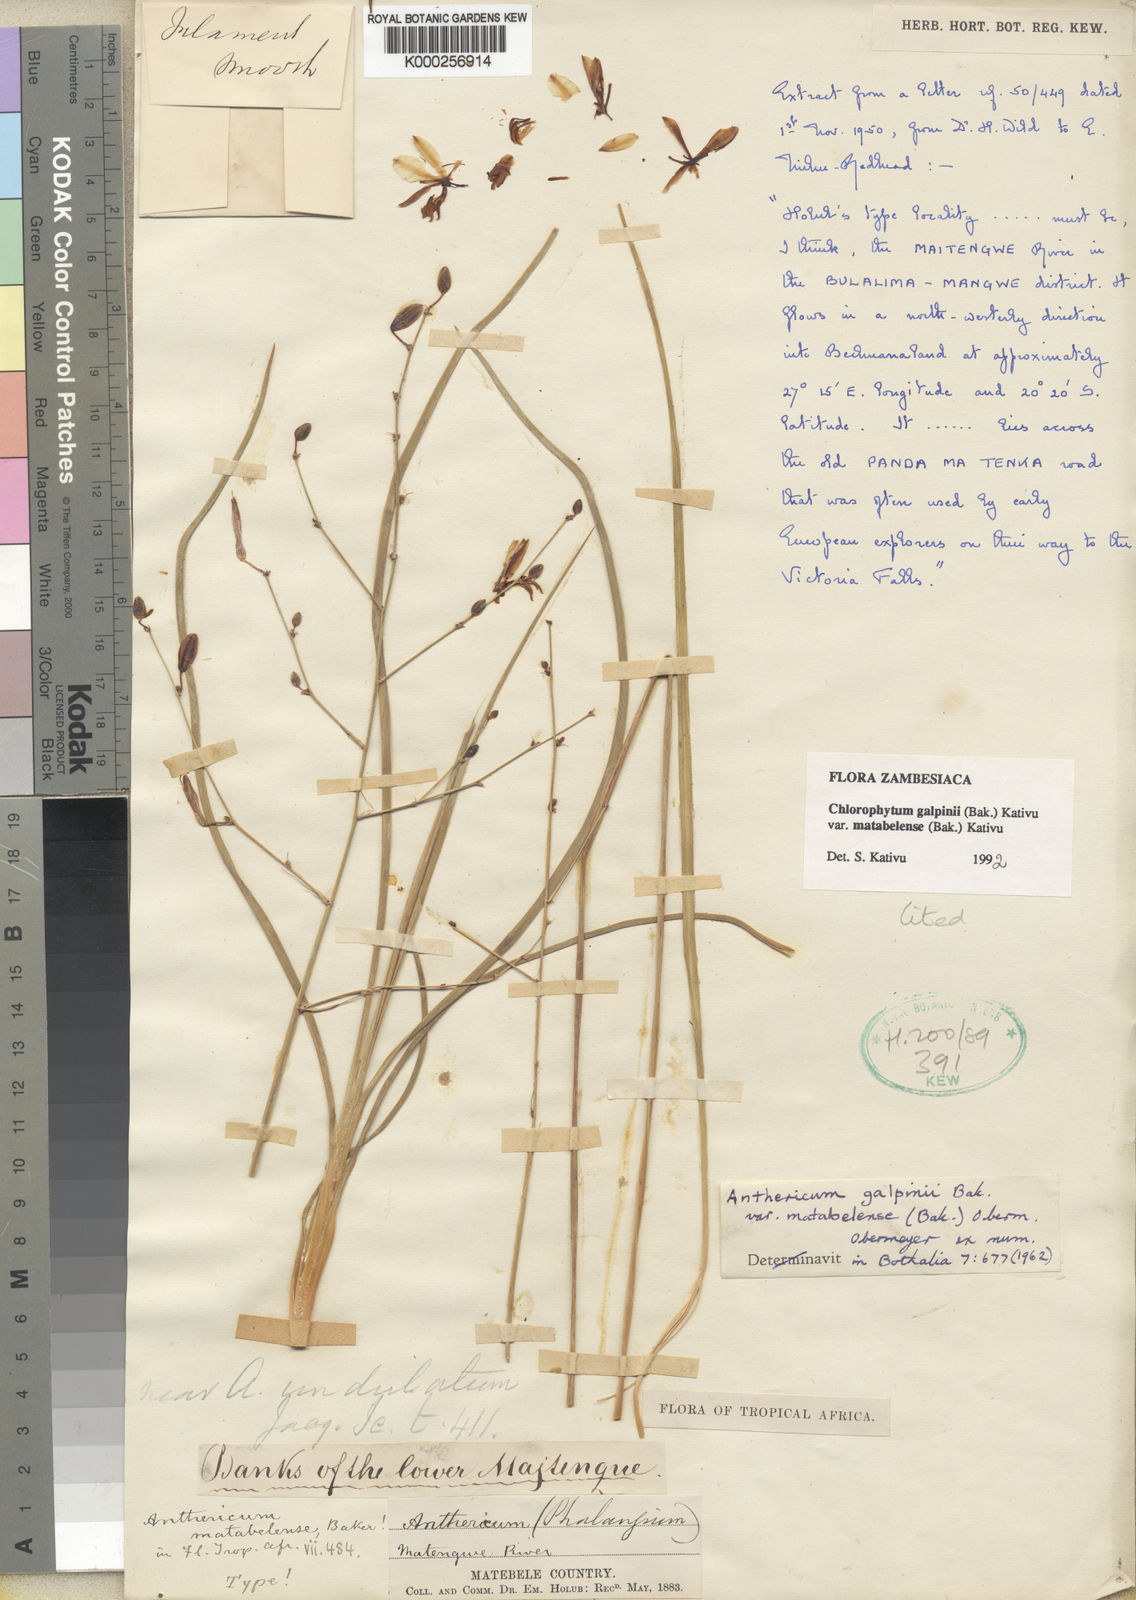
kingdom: Plantae
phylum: Tracheophyta
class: Liliopsida
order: Asparagales
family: Asparagaceae
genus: Chlorophytum
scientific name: Chlorophytum galpinii
